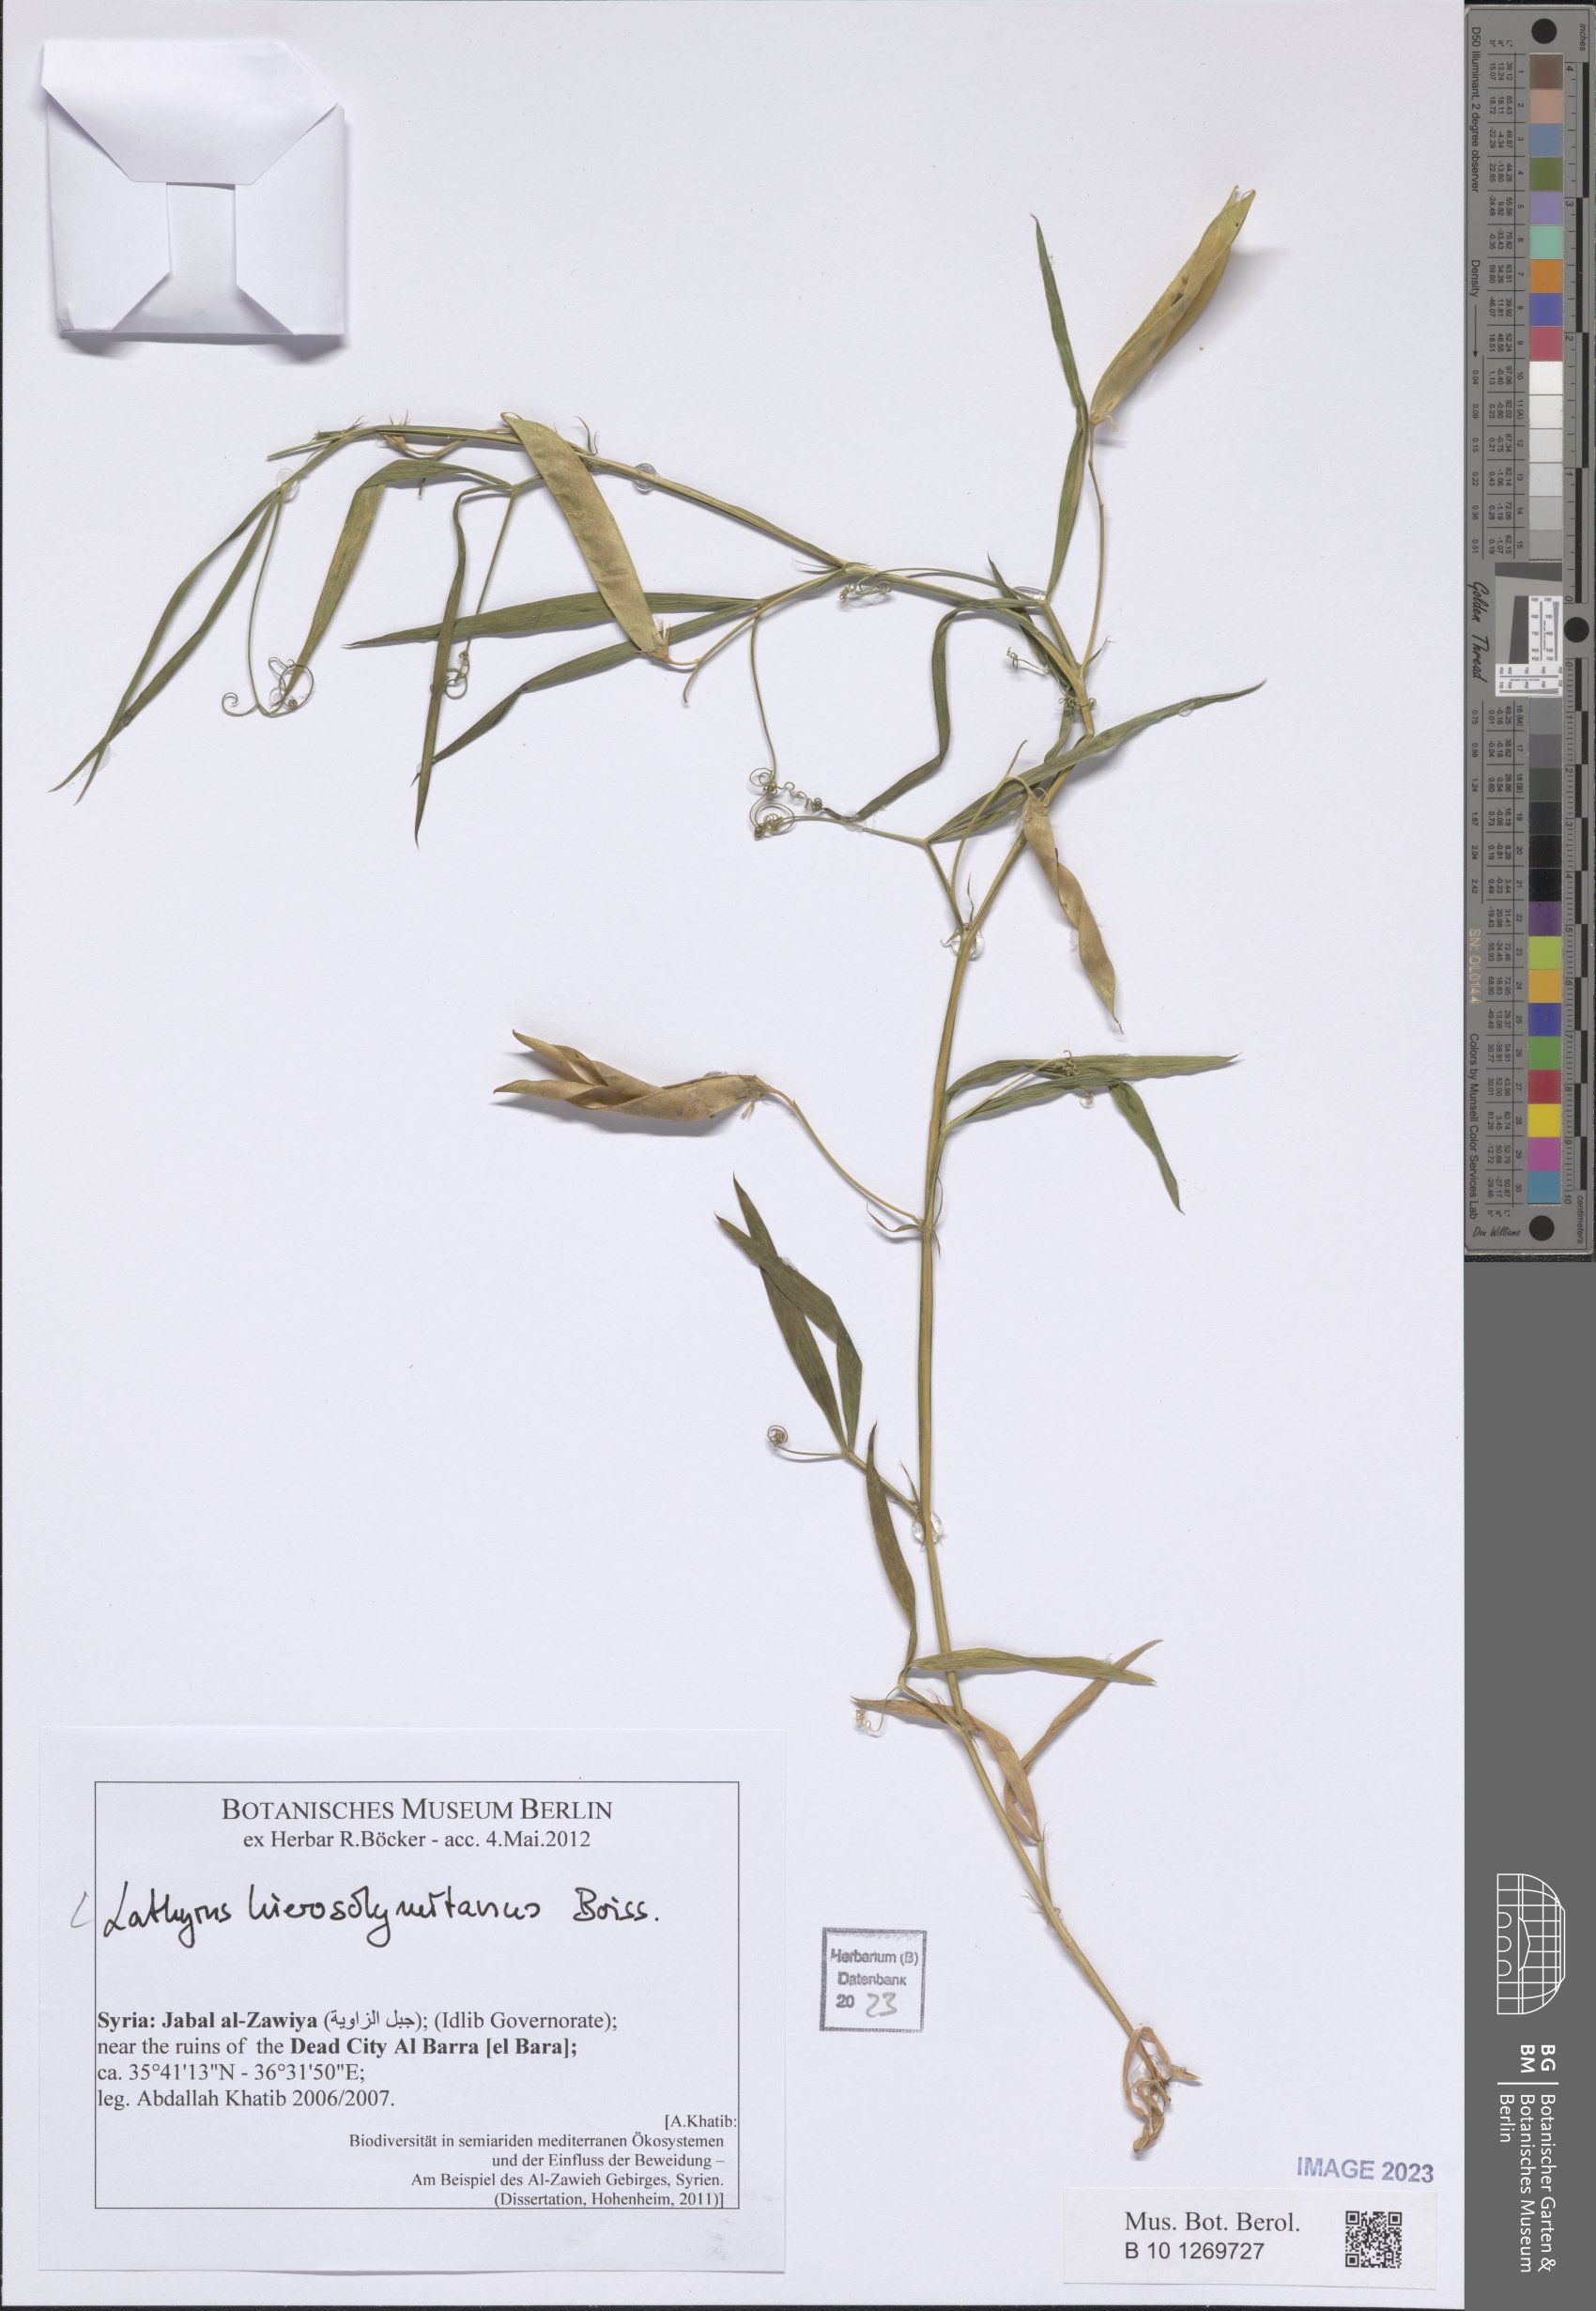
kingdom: Plantae
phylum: Tracheophyta
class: Magnoliopsida
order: Fabales
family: Fabaceae
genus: Lathyrus
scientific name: Lathyrus hierosolymitanus
